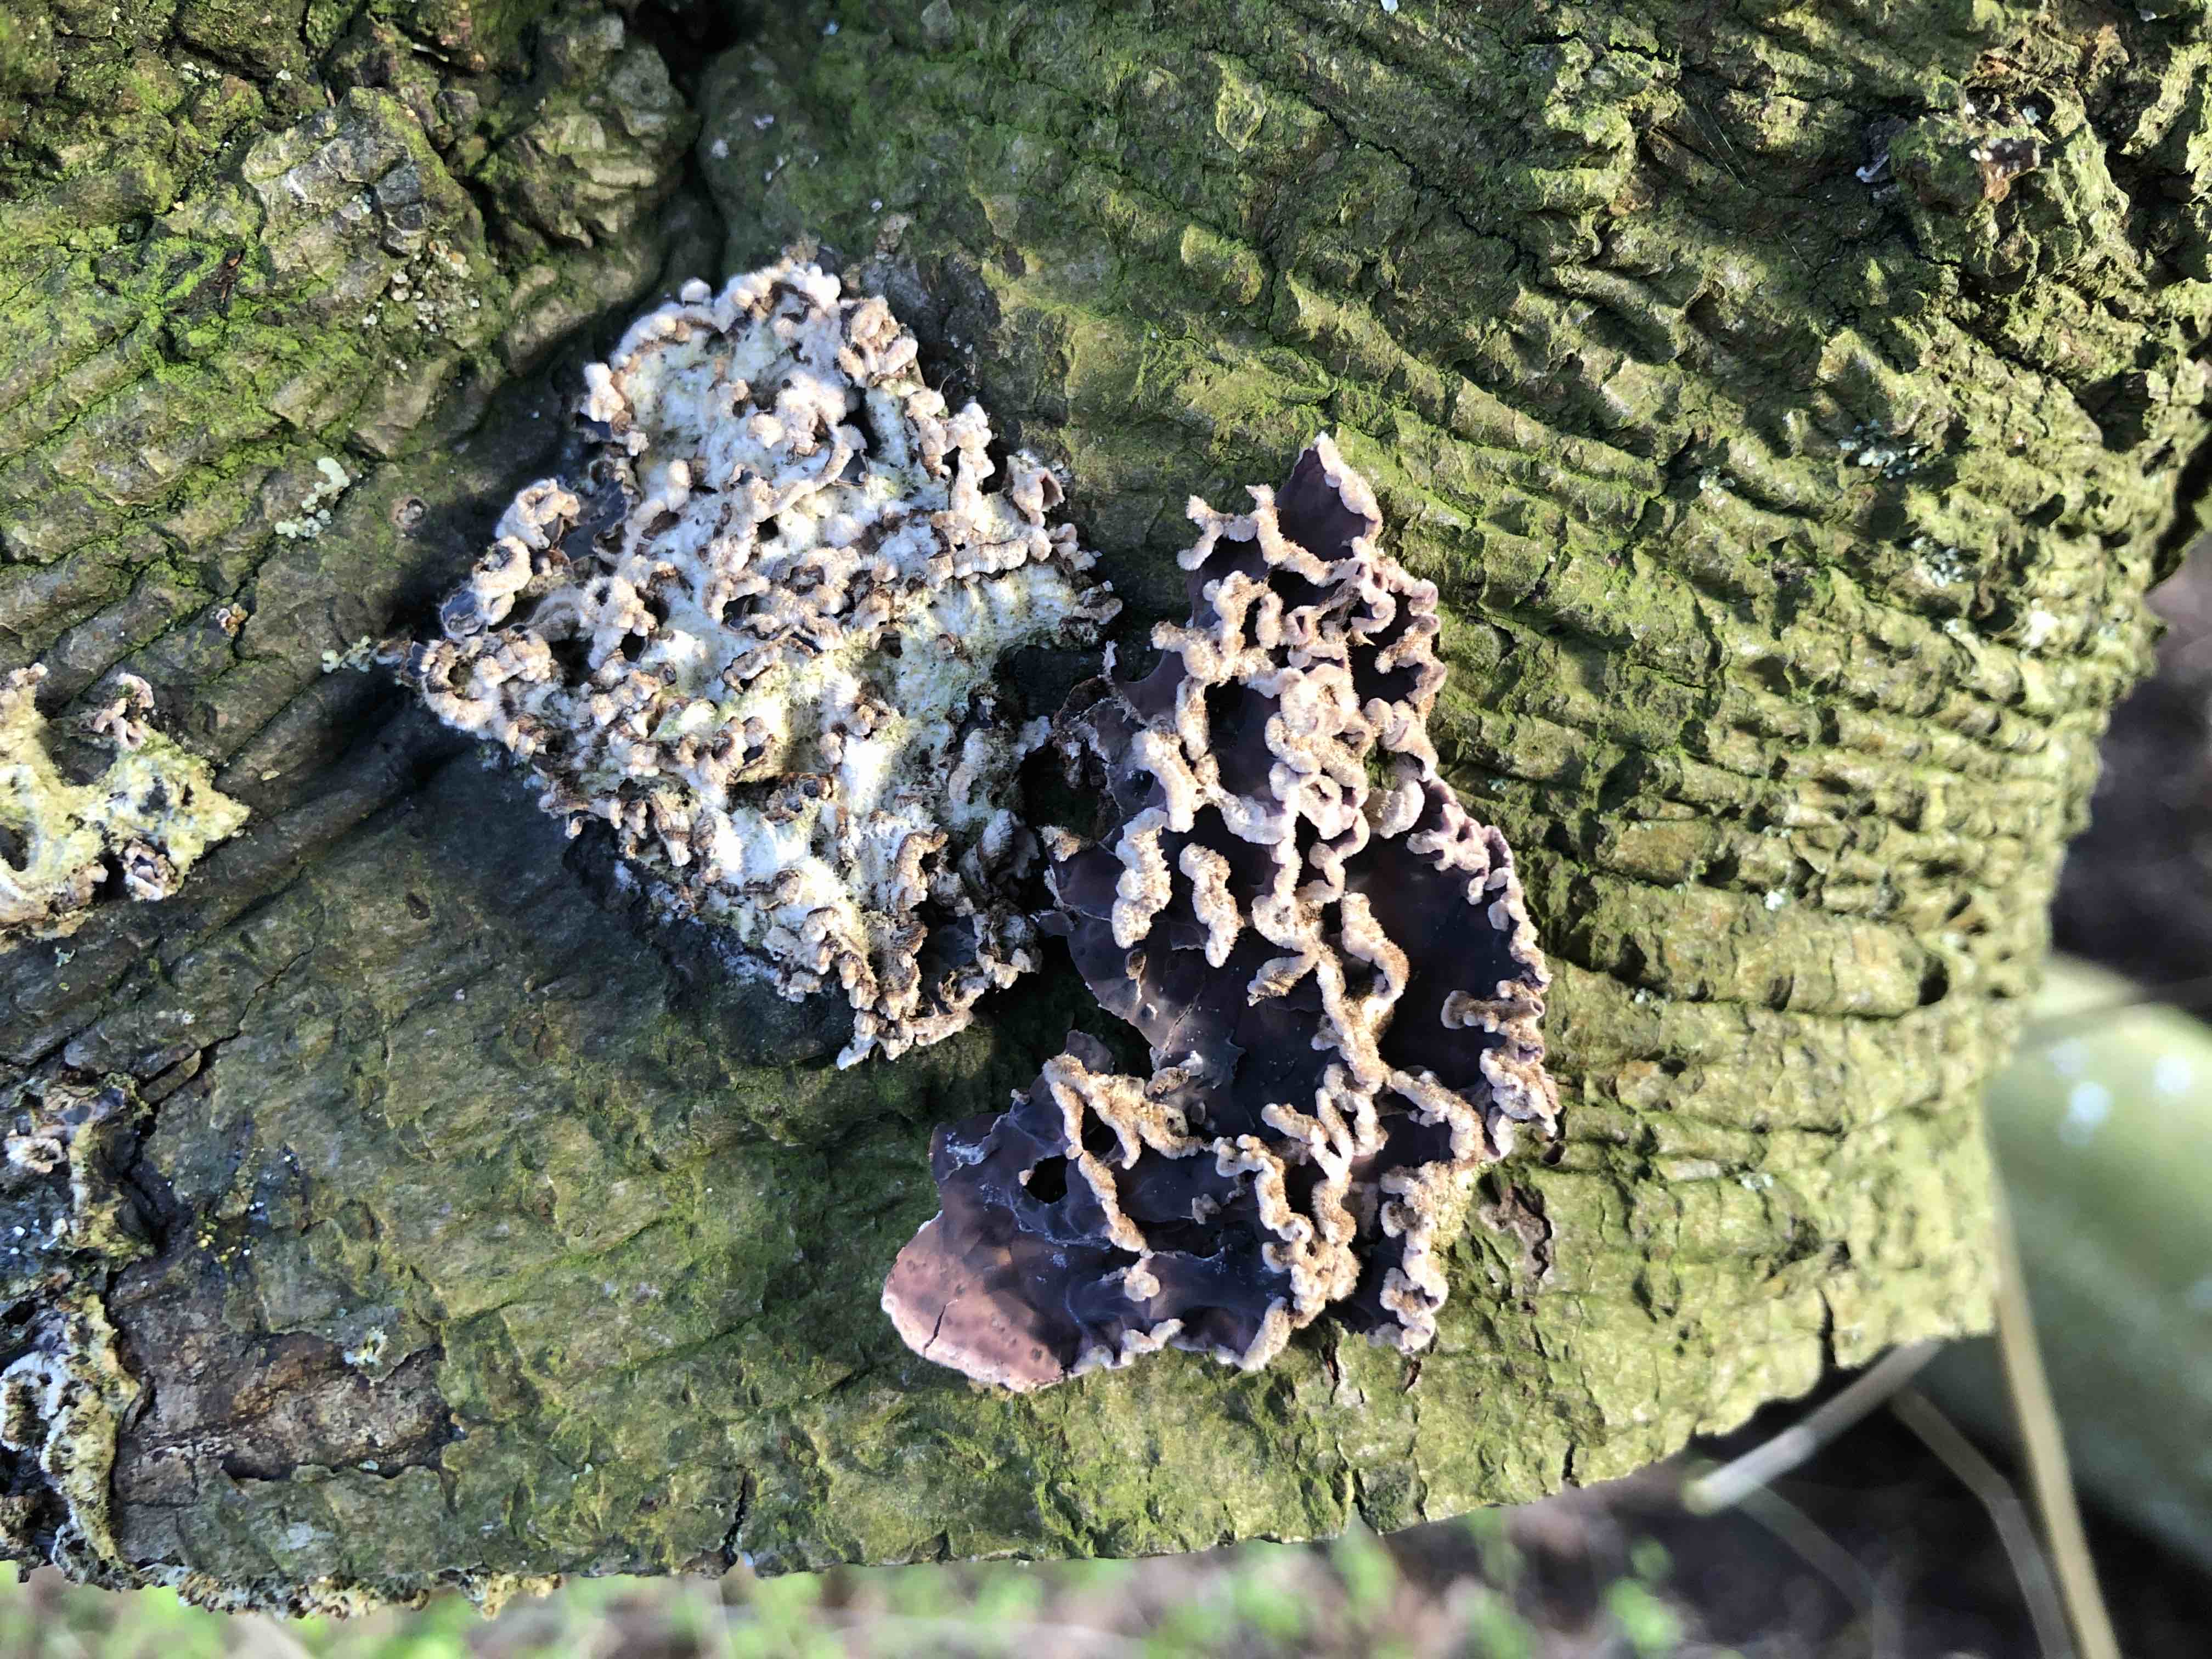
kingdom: Fungi
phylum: Basidiomycota
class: Agaricomycetes
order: Agaricales
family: Cyphellaceae
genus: Chondrostereum
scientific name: Chondrostereum purpureum
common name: purpurlædersvamp
